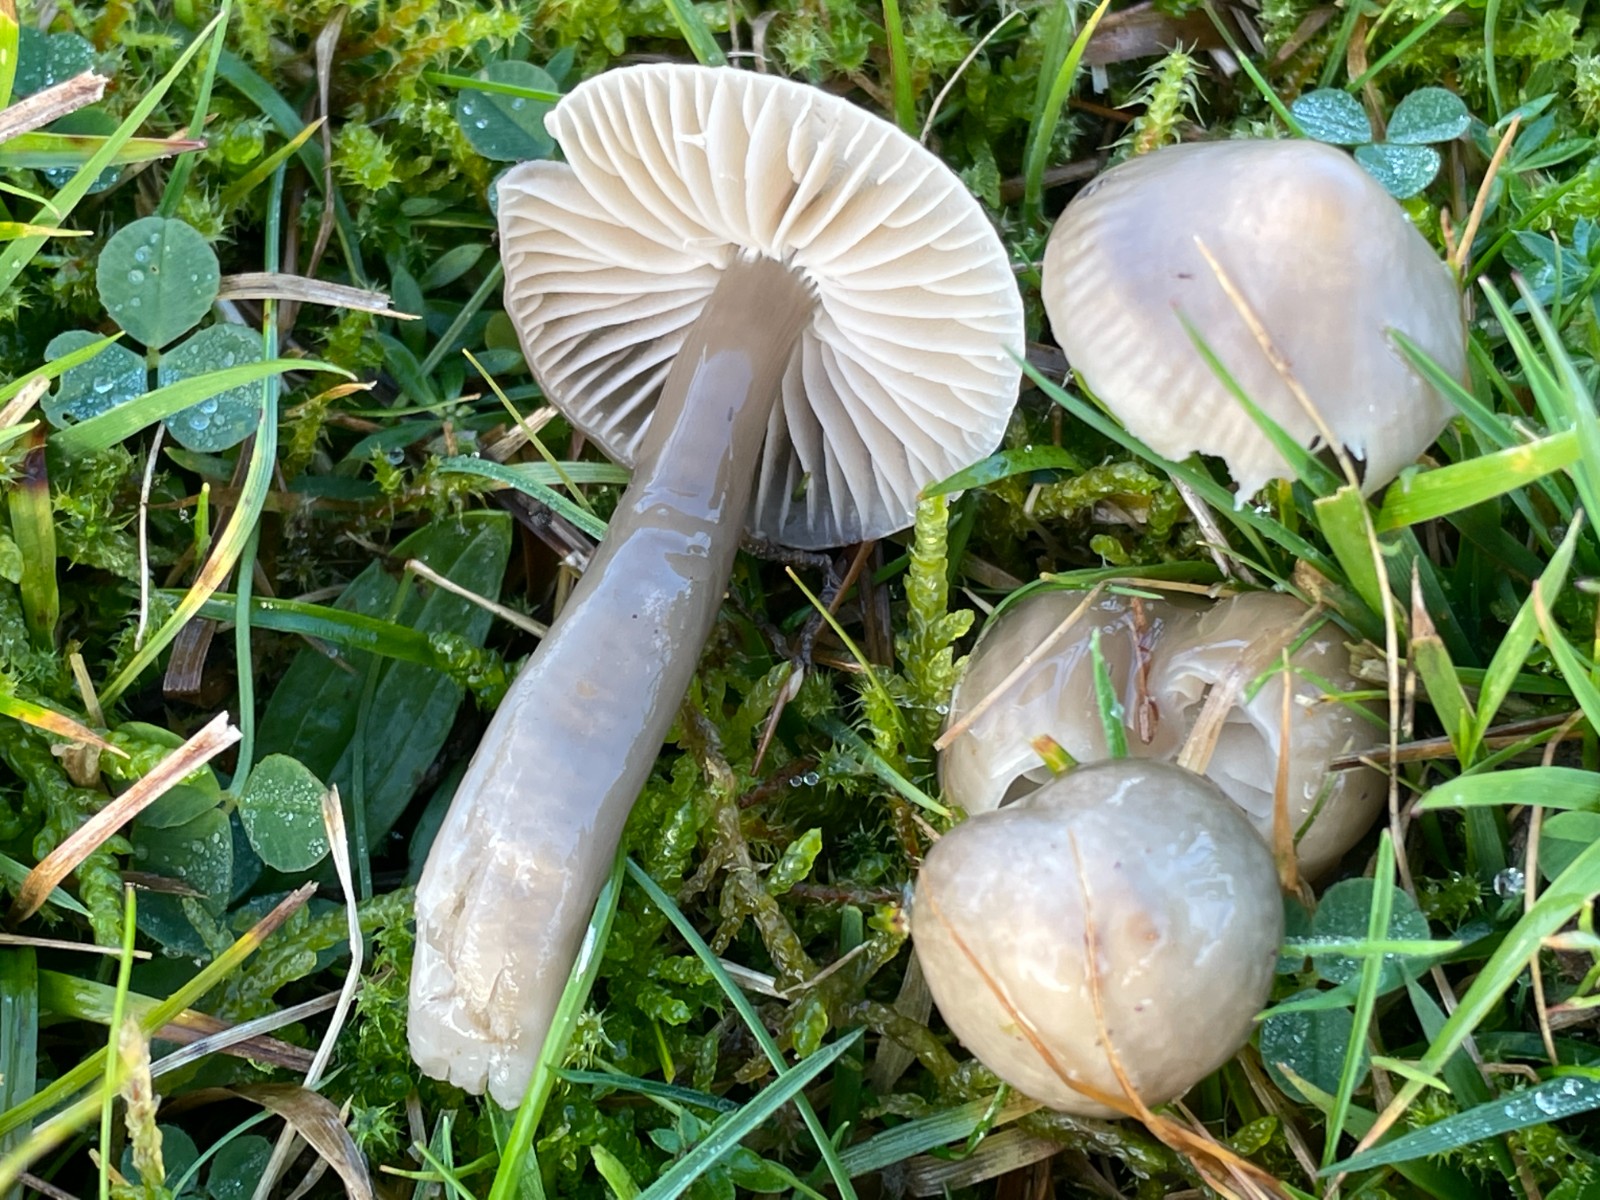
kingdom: Fungi
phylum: Basidiomycota
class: Agaricomycetes
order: Agaricales
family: Hygrophoraceae
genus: Gliophorus
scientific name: Gliophorus irrigatus
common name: slimet vokshat
